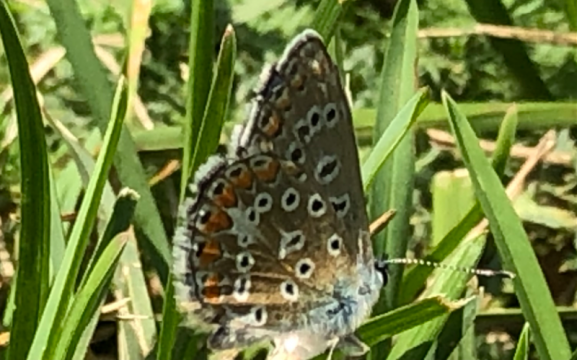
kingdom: Animalia
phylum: Arthropoda
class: Insecta
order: Lepidoptera
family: Lycaenidae
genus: Polyommatus
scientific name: Polyommatus icarus
